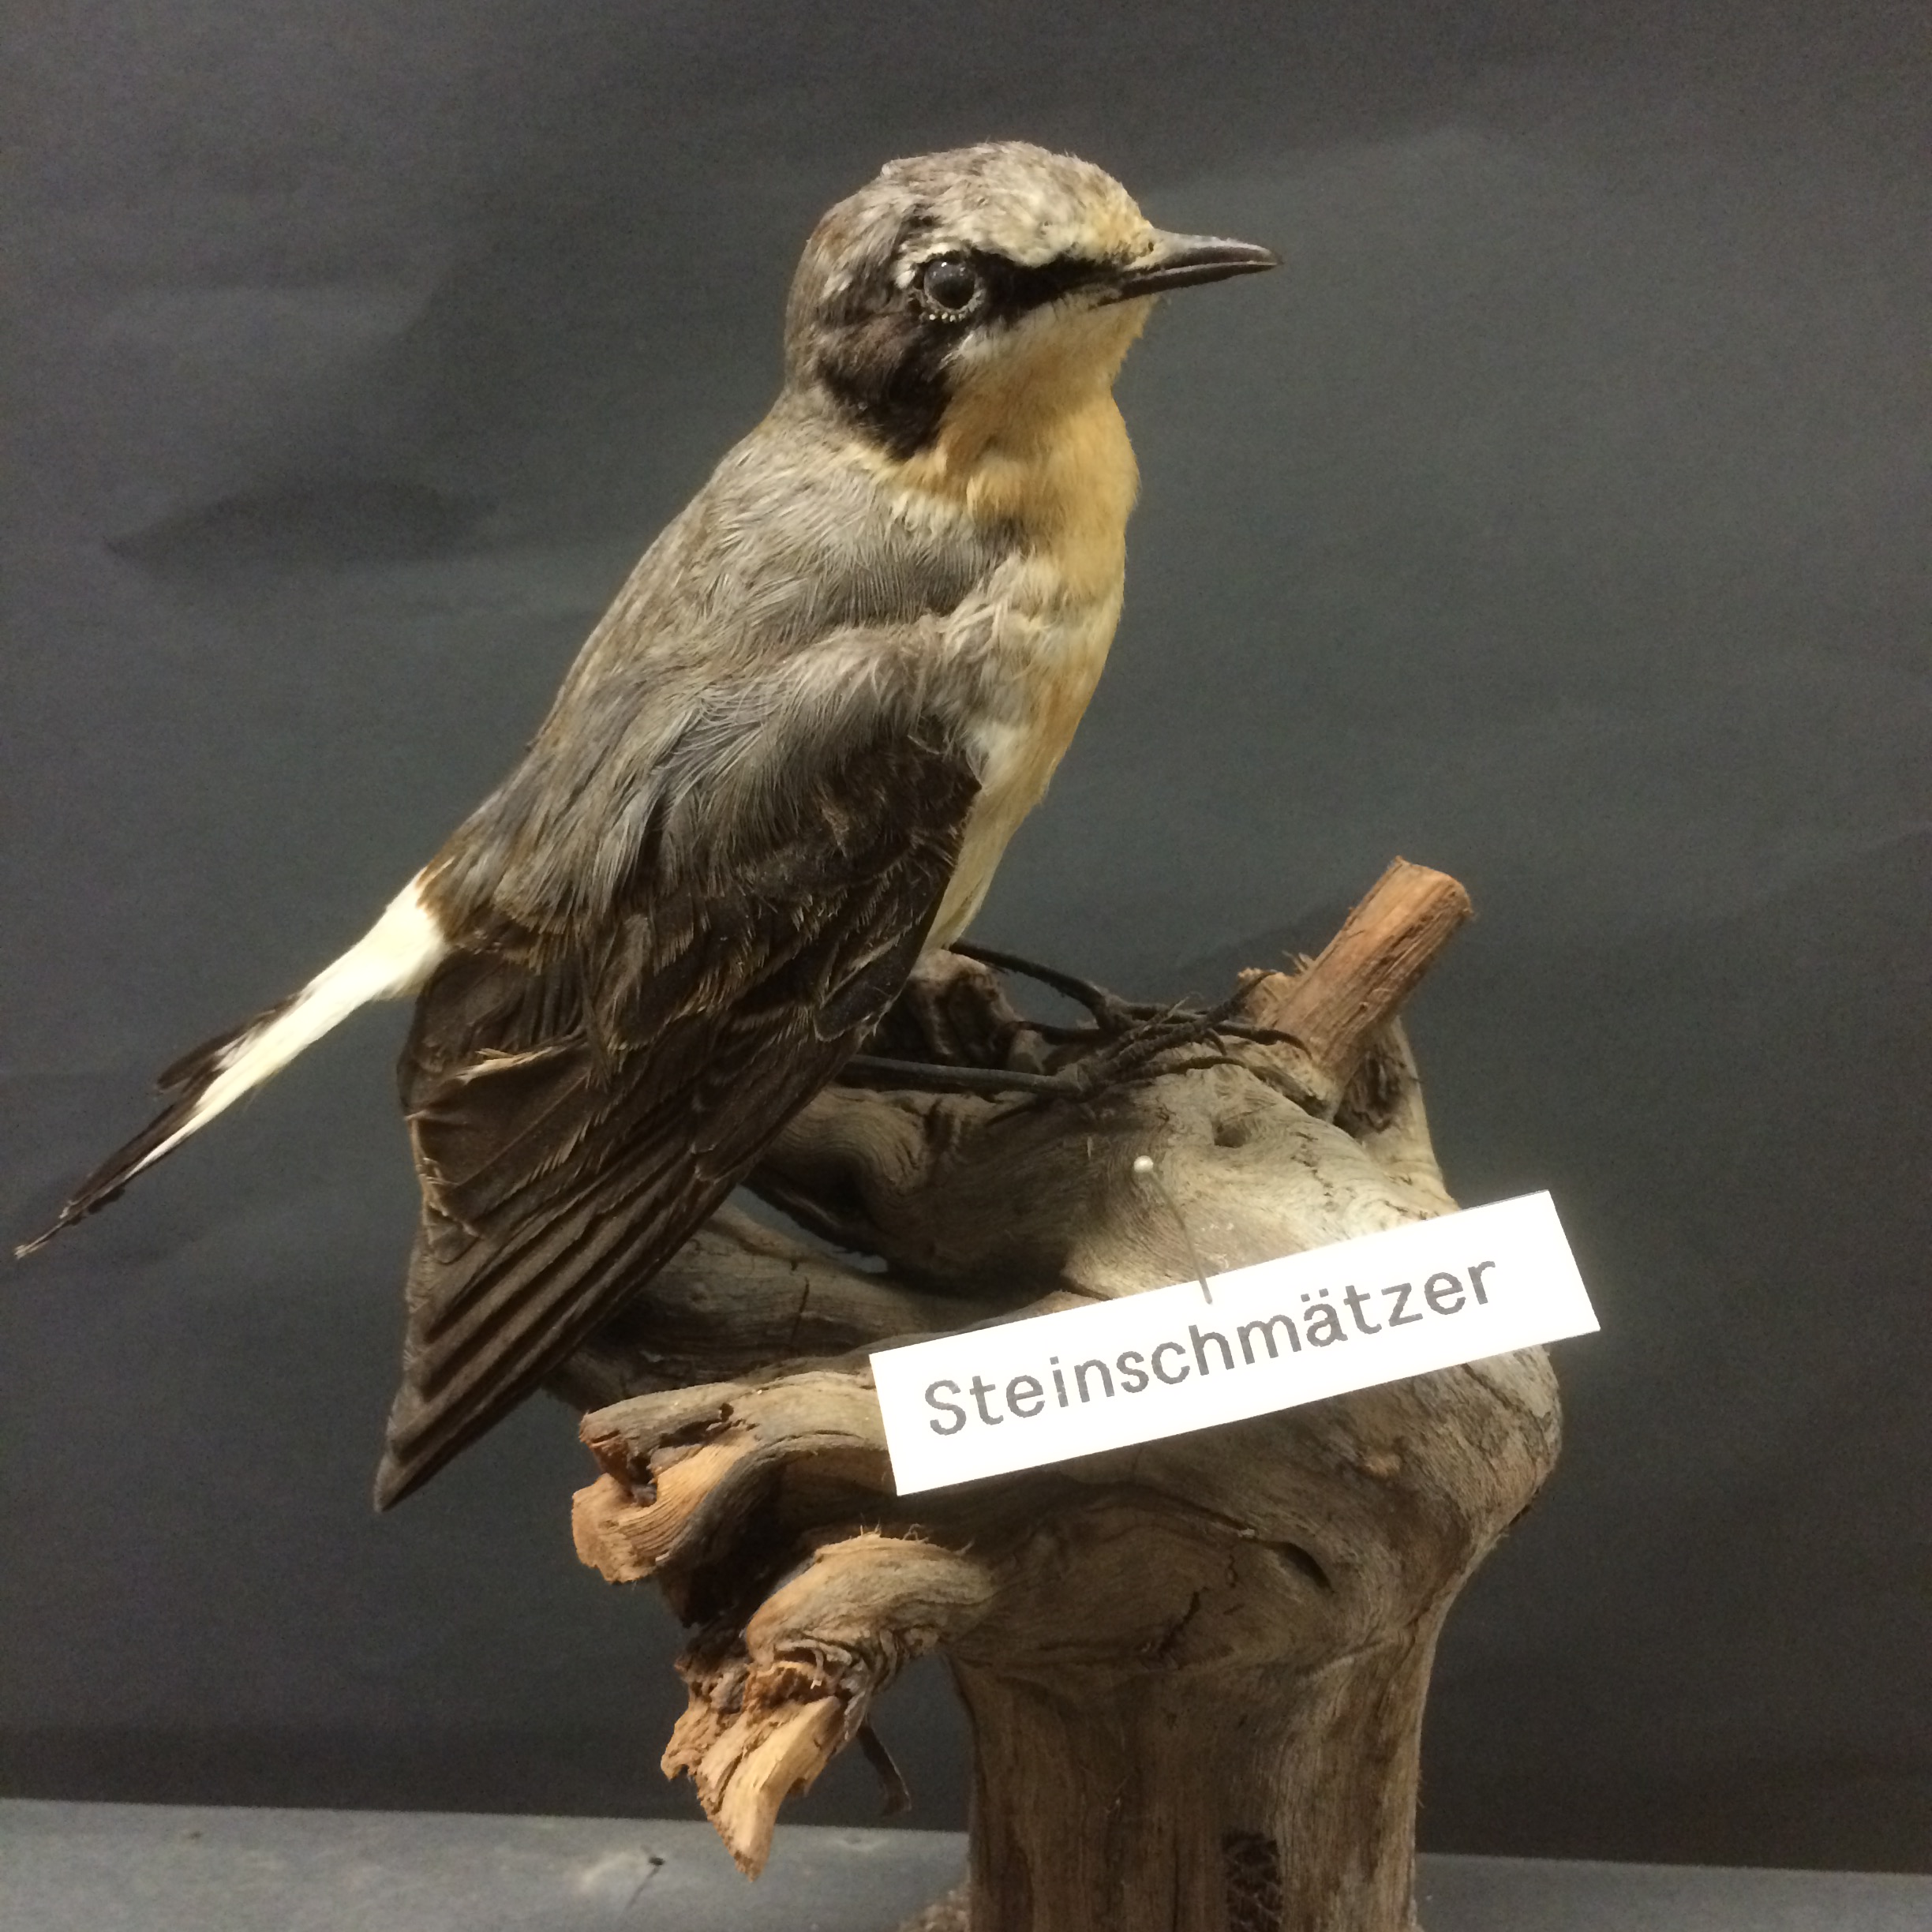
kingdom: Animalia
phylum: Chordata
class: Aves
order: Passeriformes
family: Muscicapidae
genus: Oenanthe
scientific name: Oenanthe oenanthe
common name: Northern wheatear
